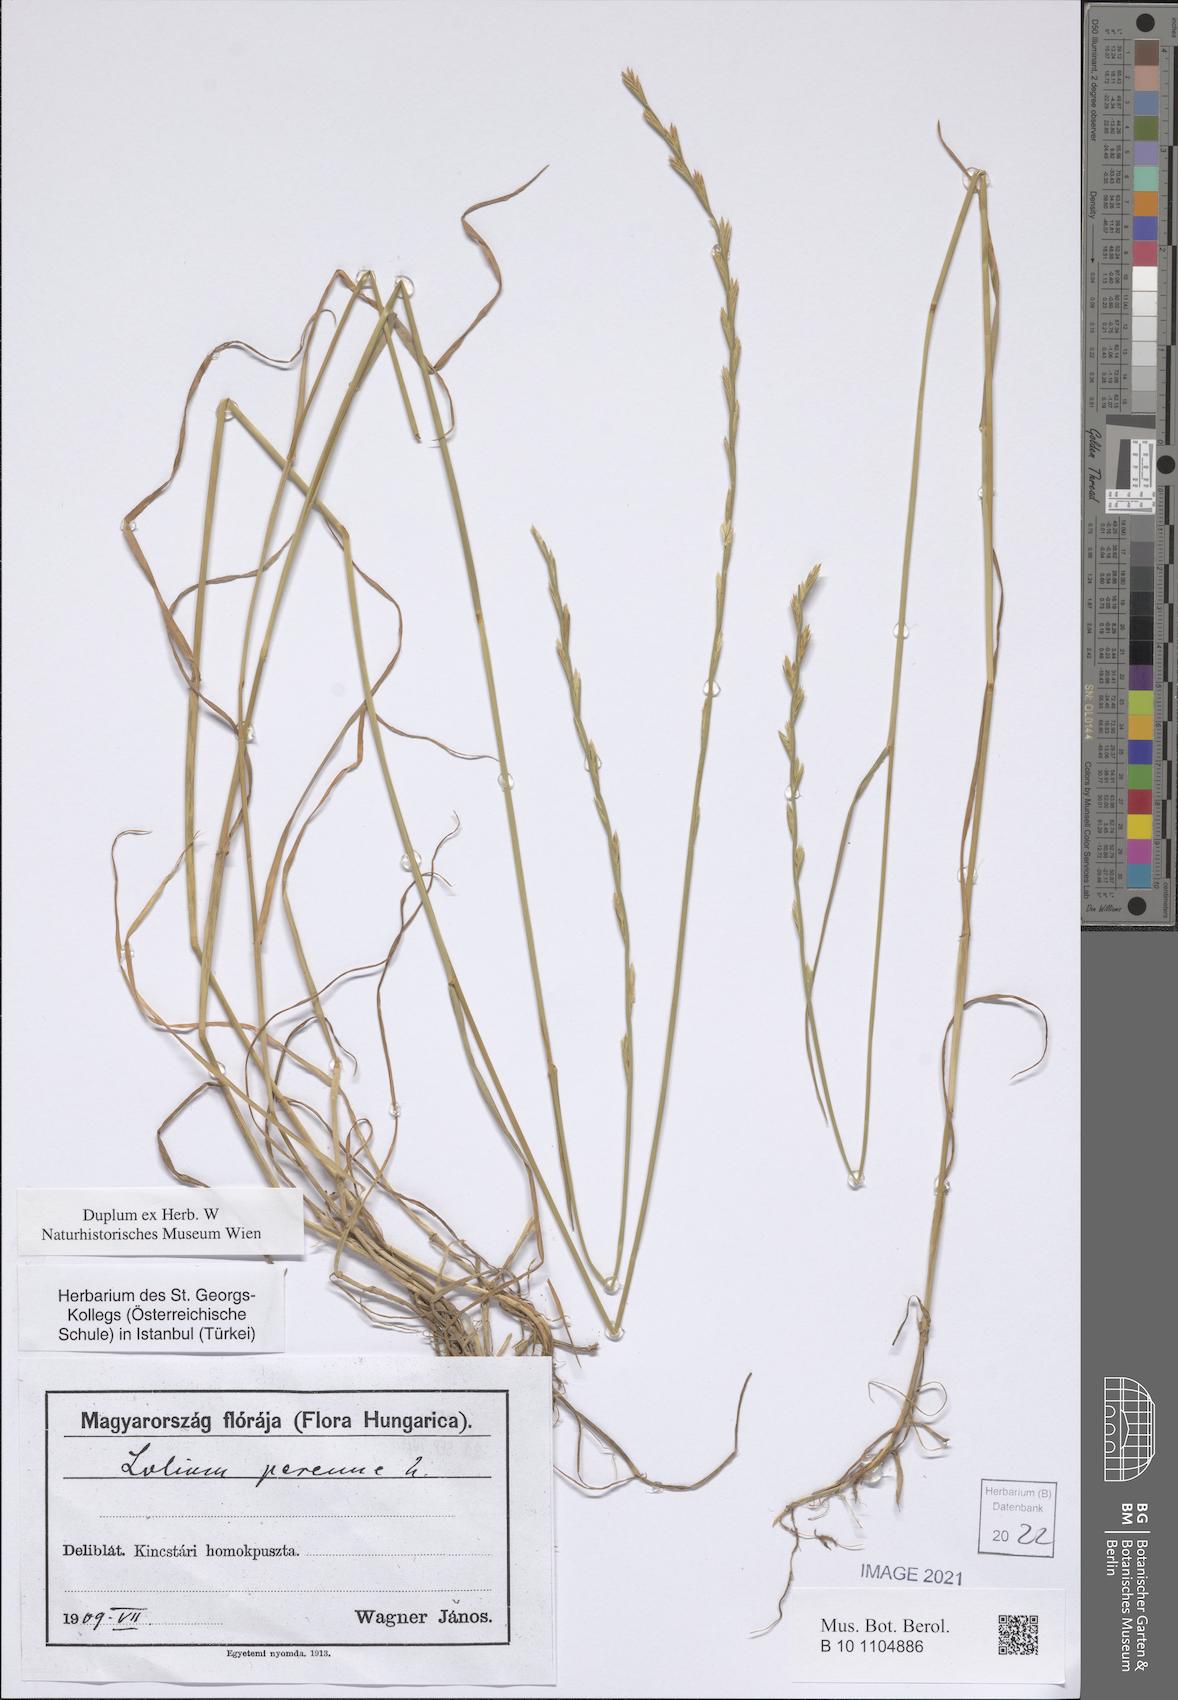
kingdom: Plantae
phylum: Tracheophyta
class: Liliopsida
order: Poales
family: Poaceae
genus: Lolium
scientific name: Lolium perenne
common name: Perennial ryegrass
